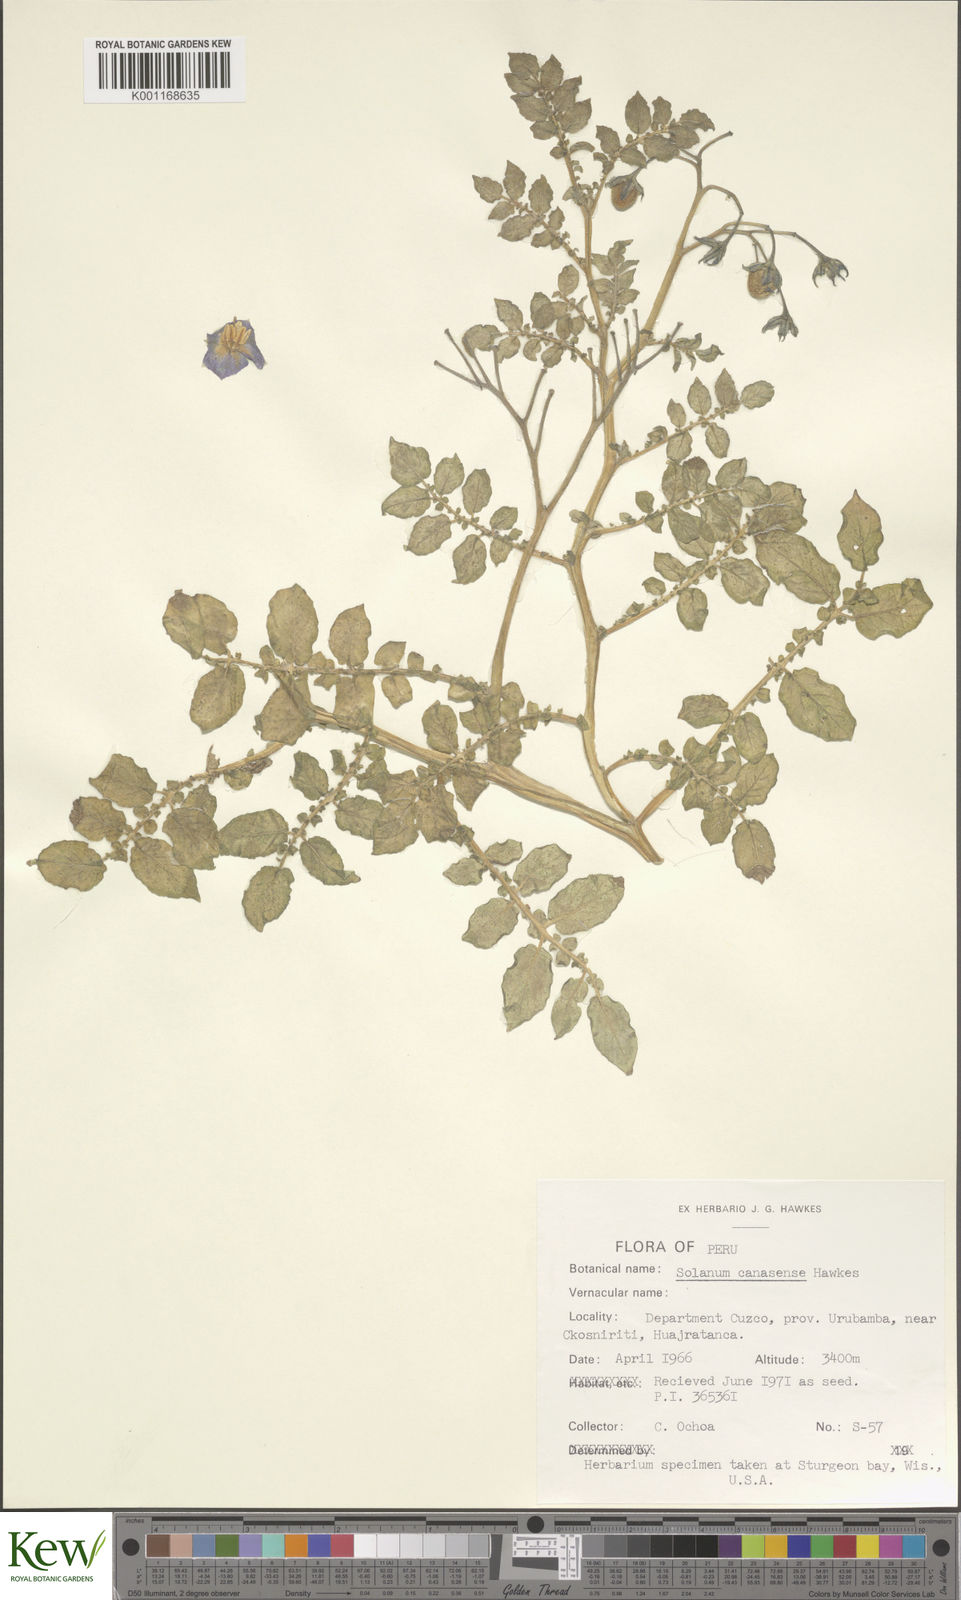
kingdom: Plantae
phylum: Tracheophyta
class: Magnoliopsida
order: Solanales
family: Solanaceae
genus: Solanum
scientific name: Solanum candolleanum
